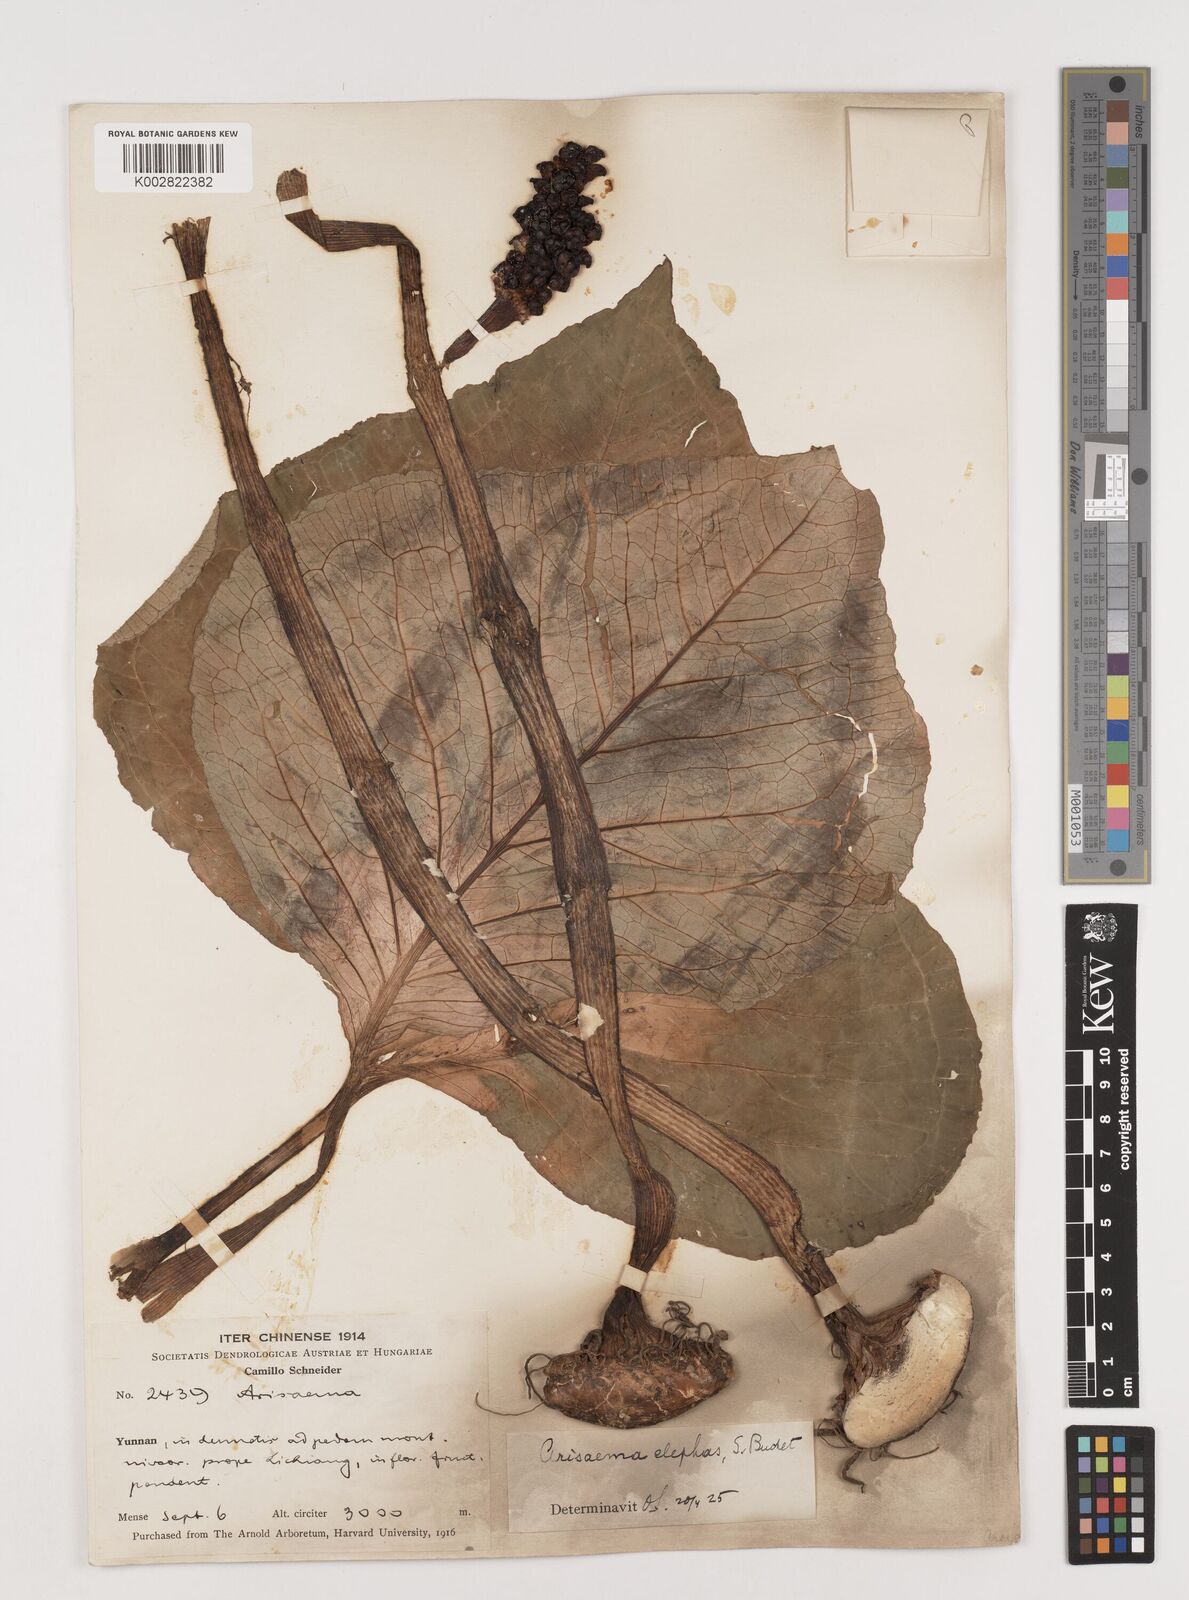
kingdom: Plantae
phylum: Tracheophyta
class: Liliopsida
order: Alismatales
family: Araceae
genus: Arisaema
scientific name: Arisaema elephas
